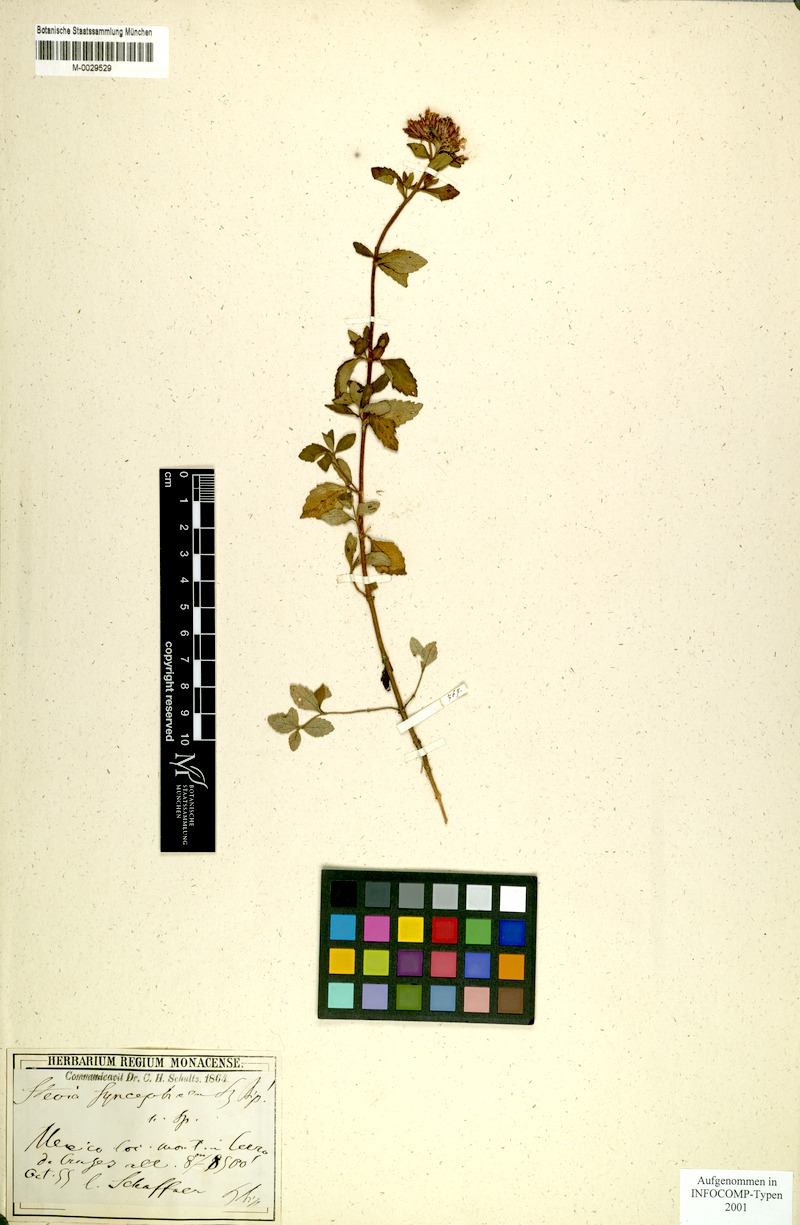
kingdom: Plantae
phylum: Tracheophyta
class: Magnoliopsida
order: Asterales
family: Asteraceae
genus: Stevia
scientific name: Stevia
